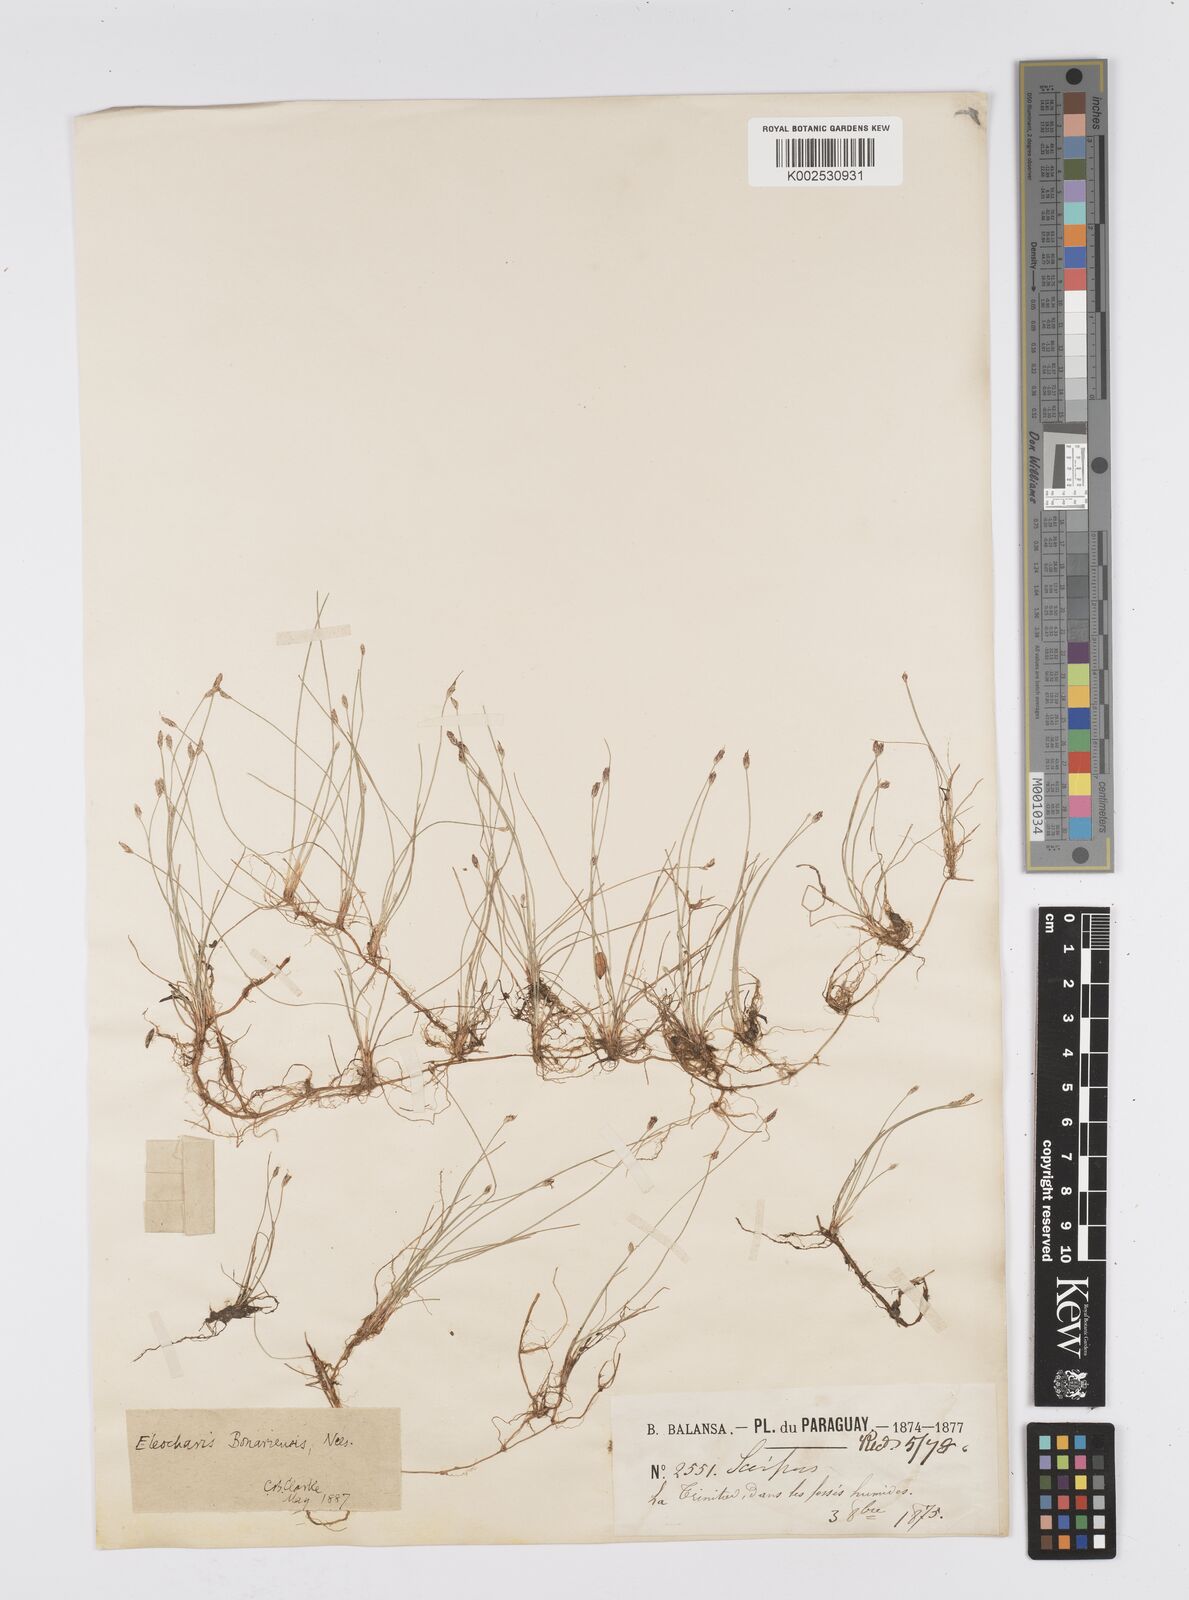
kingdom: Plantae
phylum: Tracheophyta
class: Liliopsida
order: Poales
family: Cyperaceae
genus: Eleocharis
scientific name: Eleocharis bonariensis
